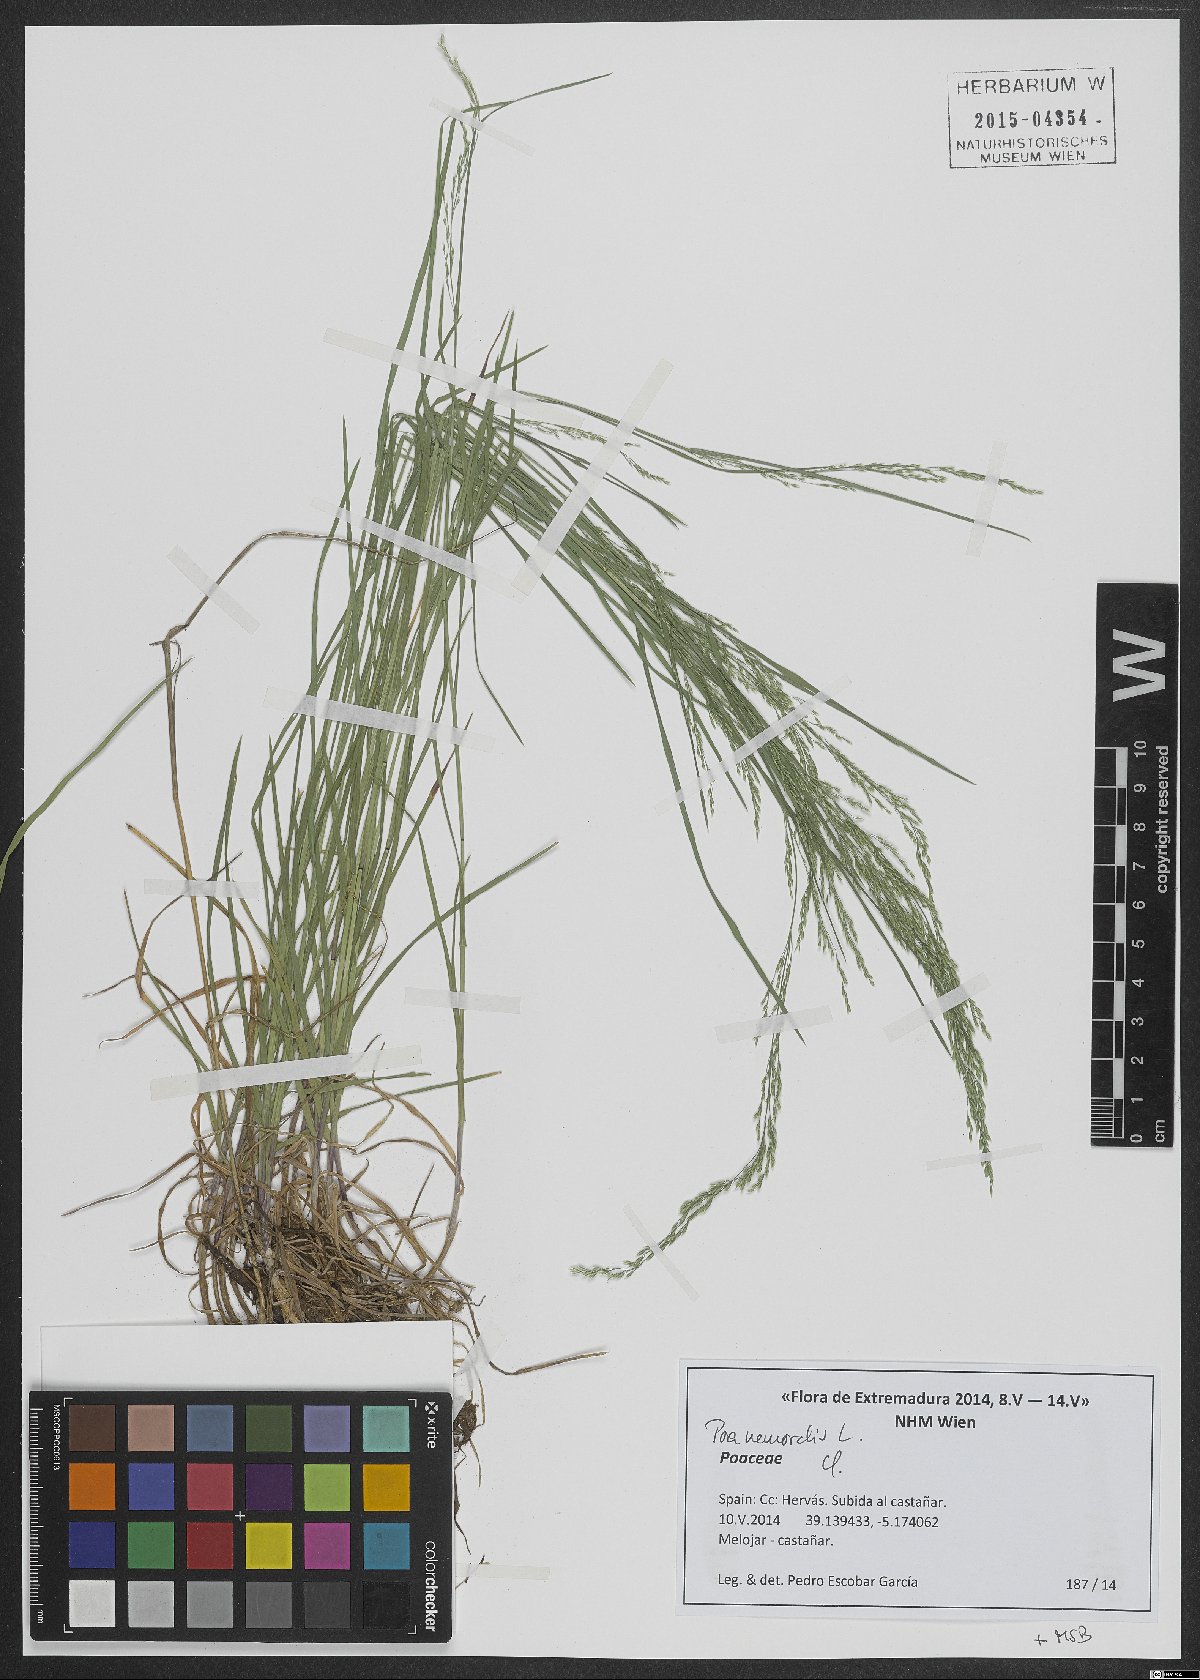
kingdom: Plantae
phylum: Tracheophyta
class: Liliopsida
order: Poales
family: Poaceae
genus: Poa
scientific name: Poa nemoralis
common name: Wood bluegrass
